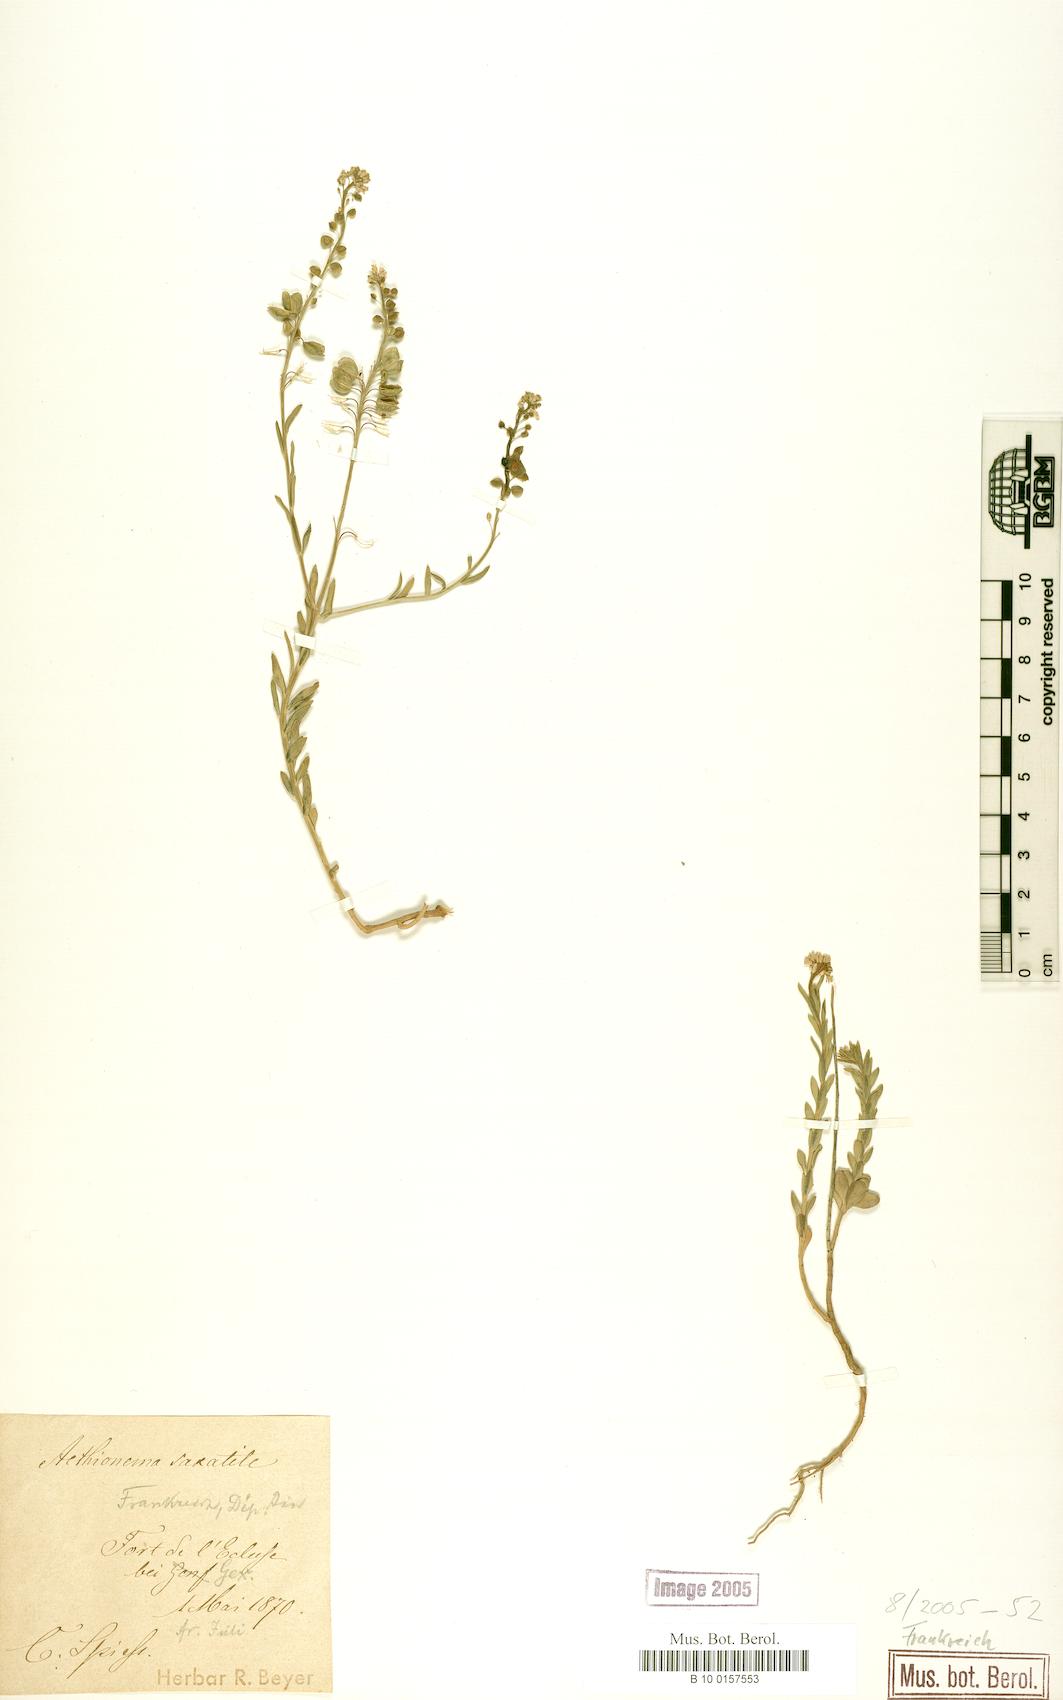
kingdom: Plantae
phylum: Tracheophyta
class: Magnoliopsida
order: Brassicales
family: Brassicaceae
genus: Aethionema
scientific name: Aethionema saxatile
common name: Burnt candytuft
